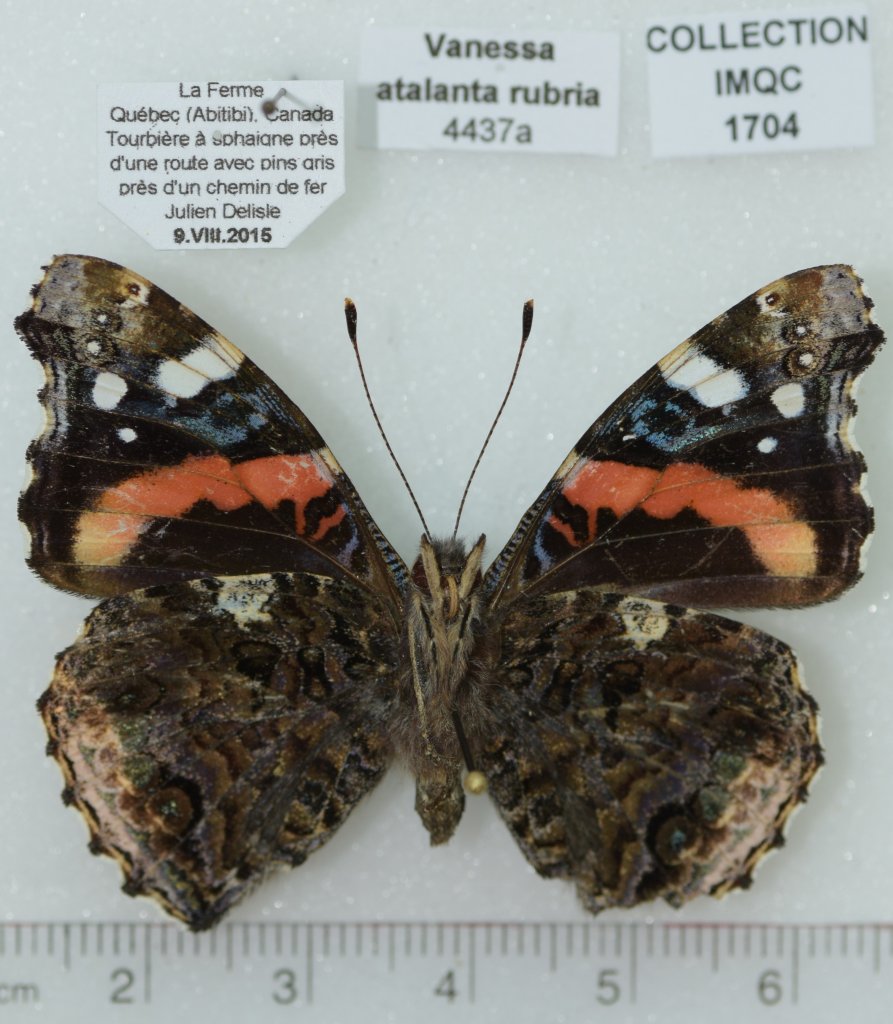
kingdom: Animalia
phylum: Arthropoda
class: Insecta
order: Lepidoptera
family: Nymphalidae
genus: Vanessa
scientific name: Vanessa atalanta
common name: Red Admiral
